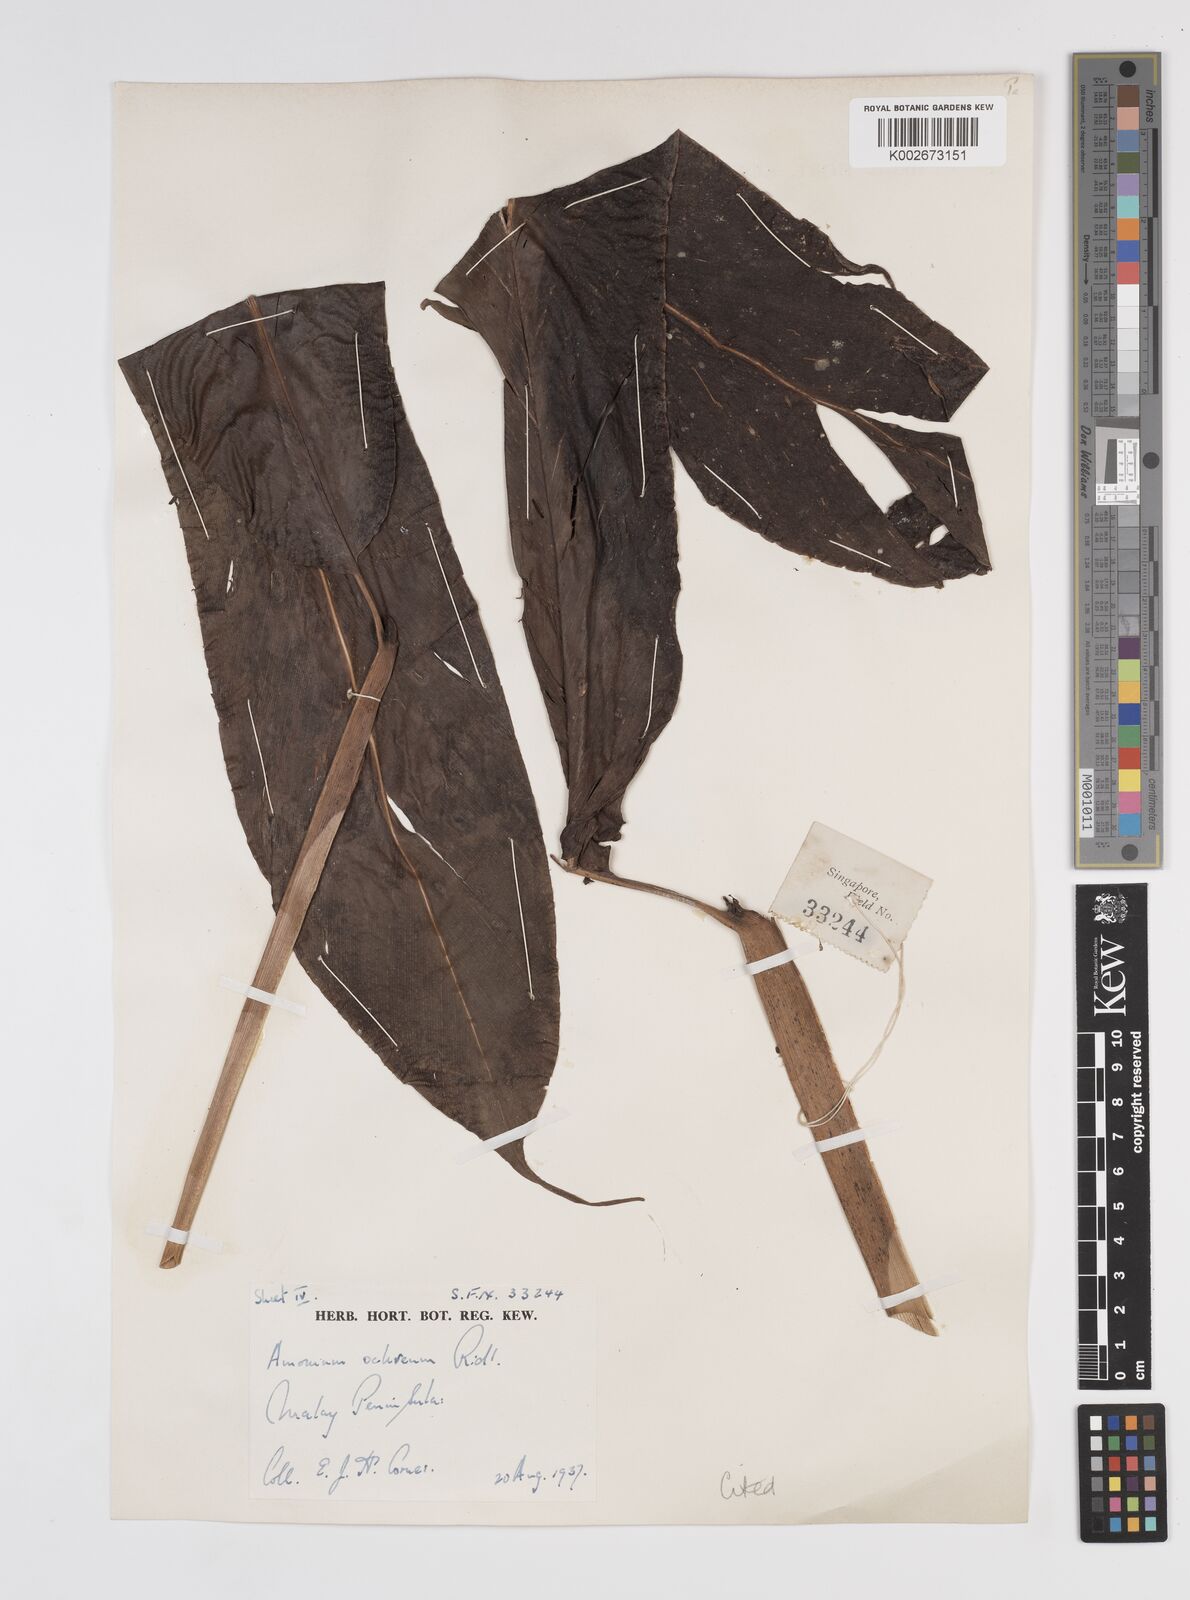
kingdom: Plantae
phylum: Tracheophyta
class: Liliopsida
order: Zingiberales
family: Zingiberaceae
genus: Meistera
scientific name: Meistera ochrea
